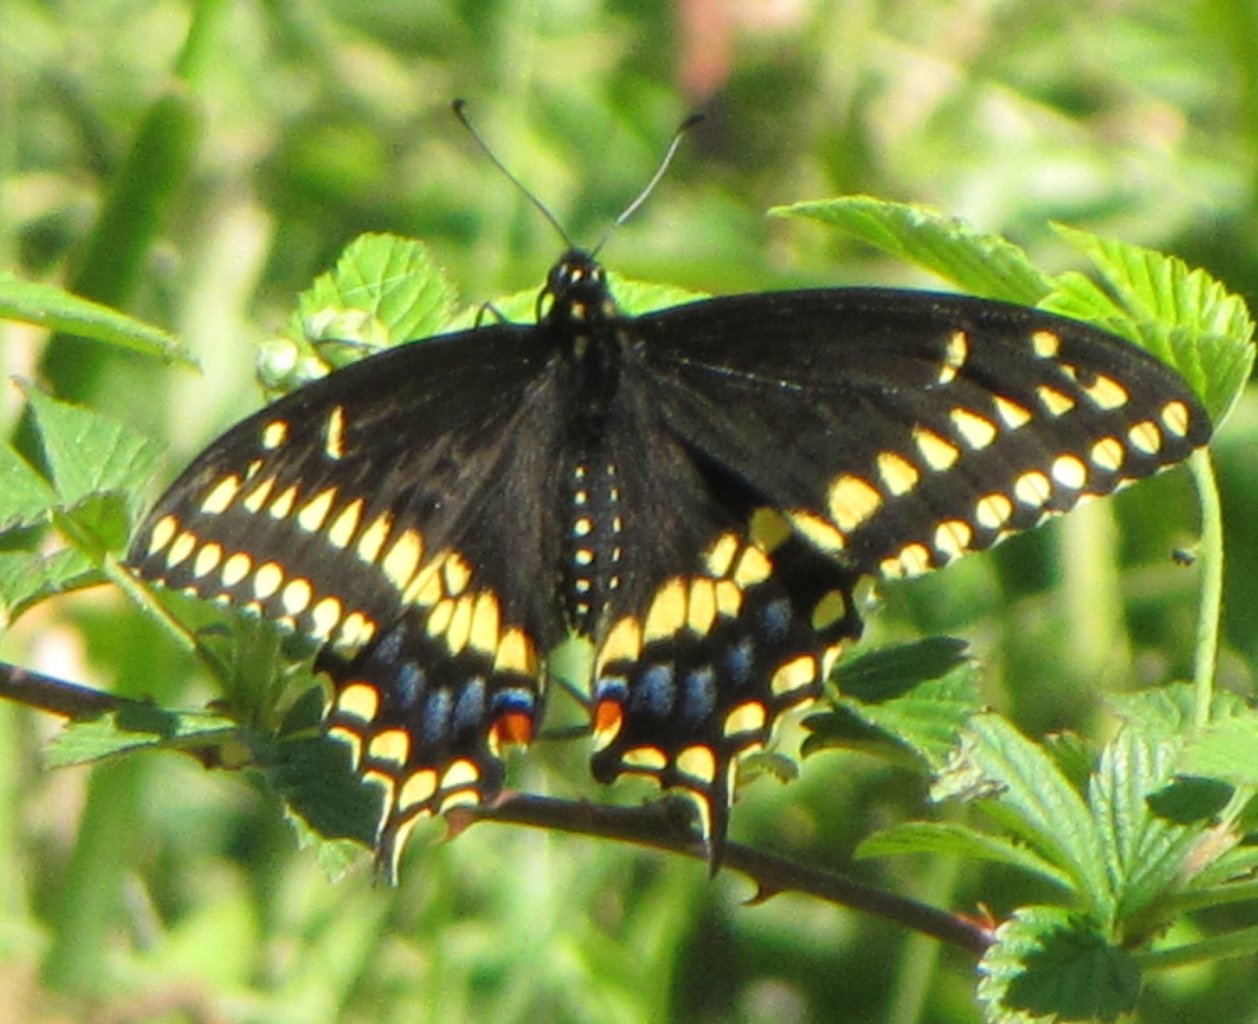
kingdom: Animalia
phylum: Arthropoda
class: Insecta
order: Lepidoptera
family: Papilionidae
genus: Papilio
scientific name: Papilio polyxenes
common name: Black Swallowtail
